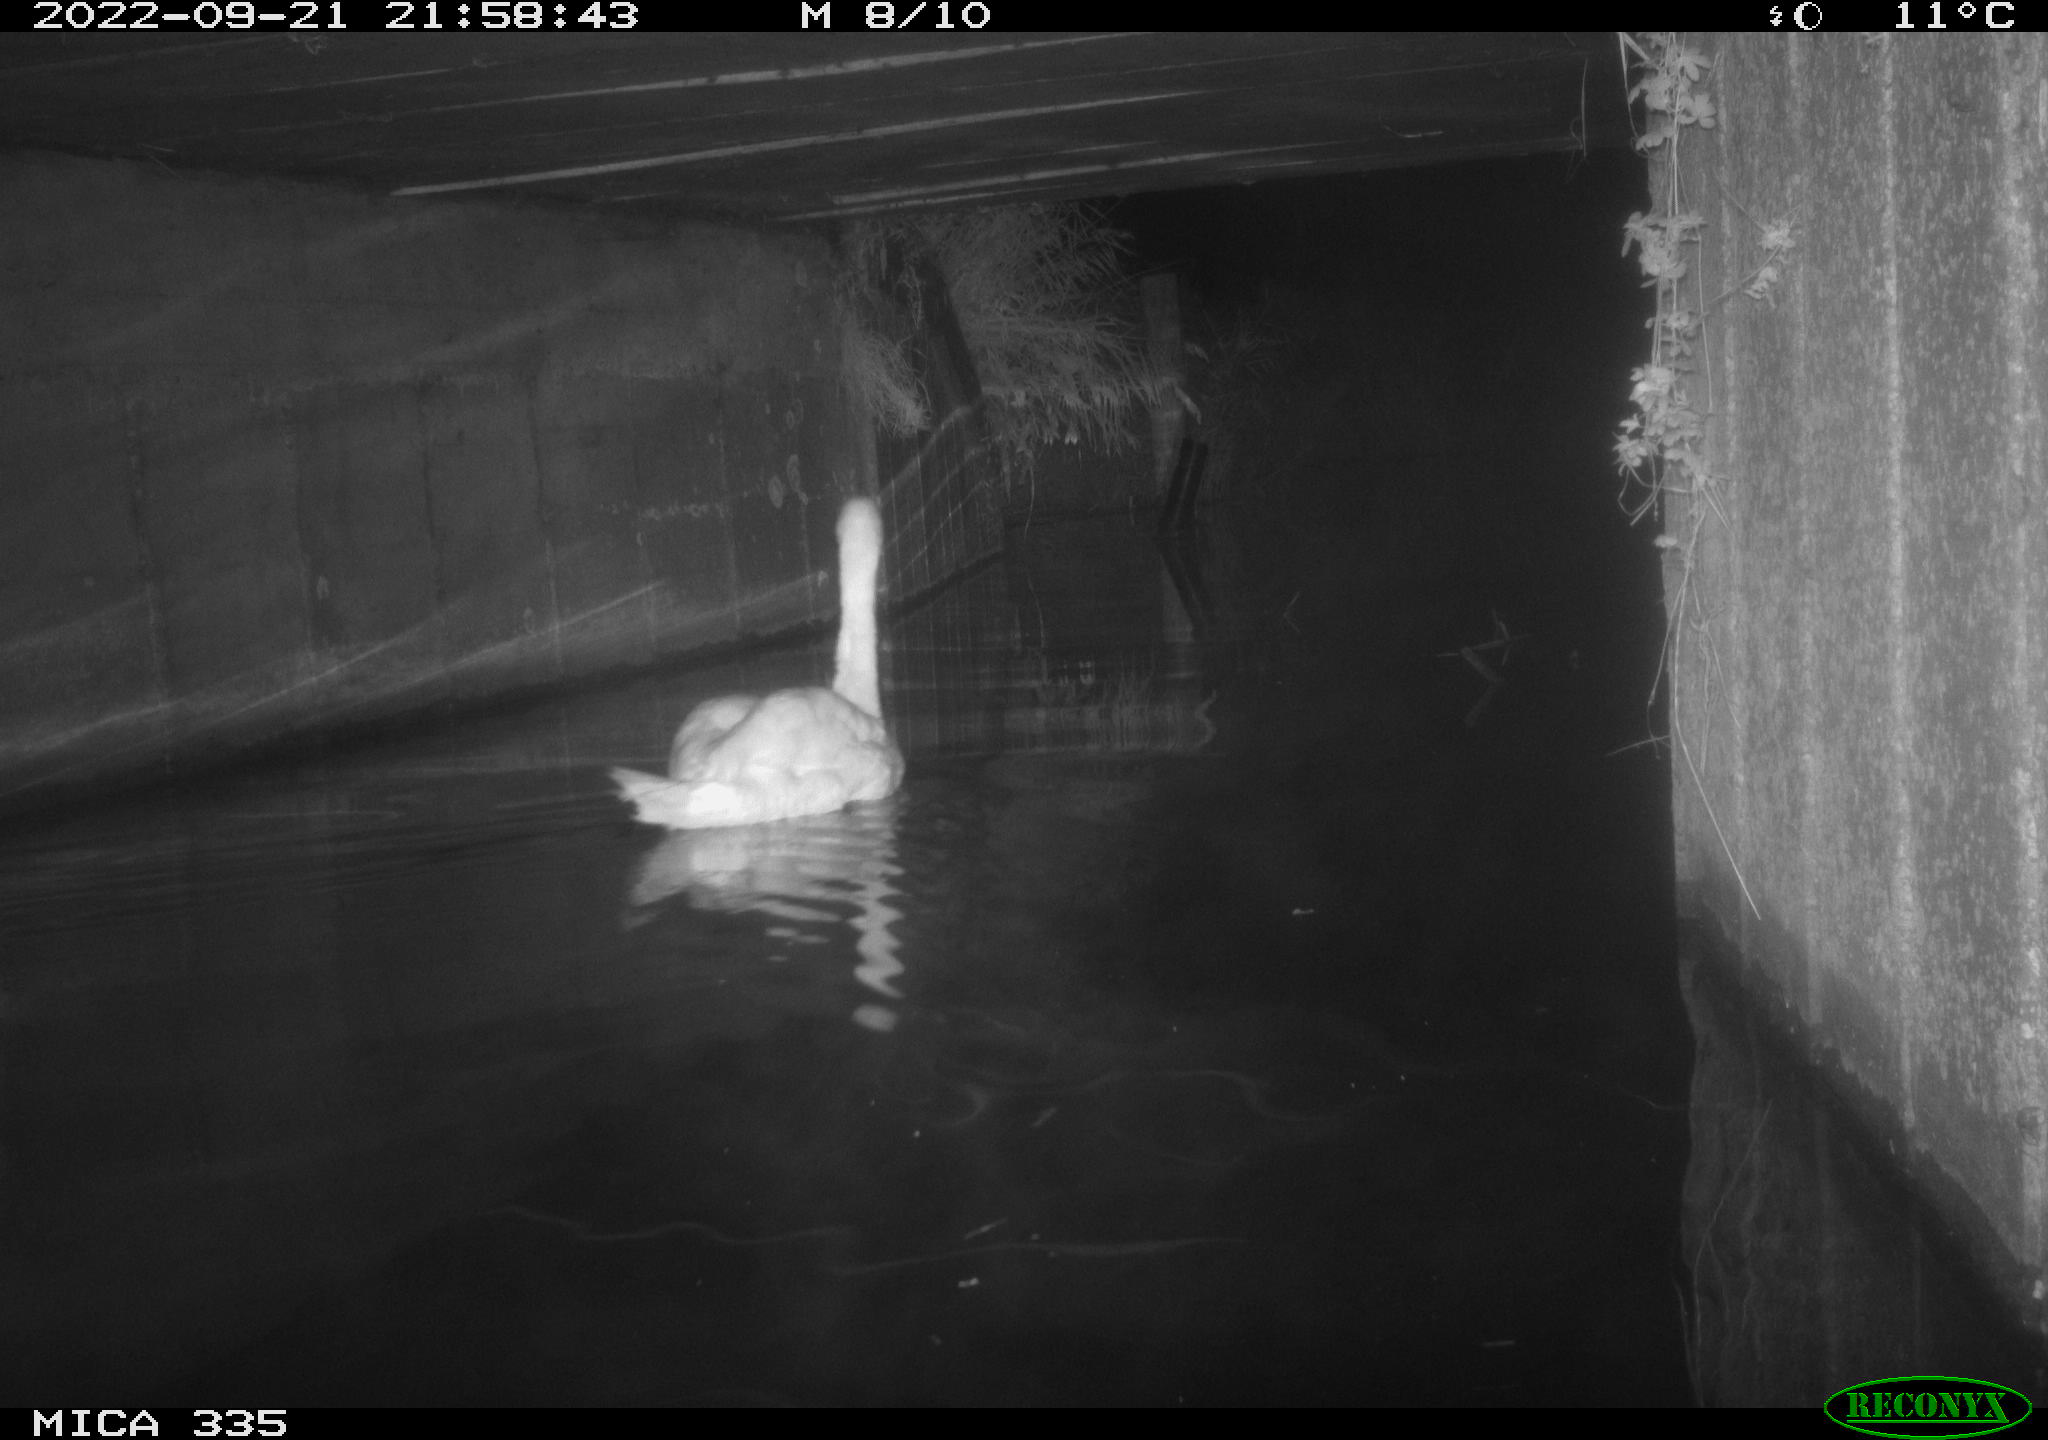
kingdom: Animalia
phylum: Chordata
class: Aves
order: Anseriformes
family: Anatidae
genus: Cygnus
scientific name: Cygnus olor
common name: Mute swan
